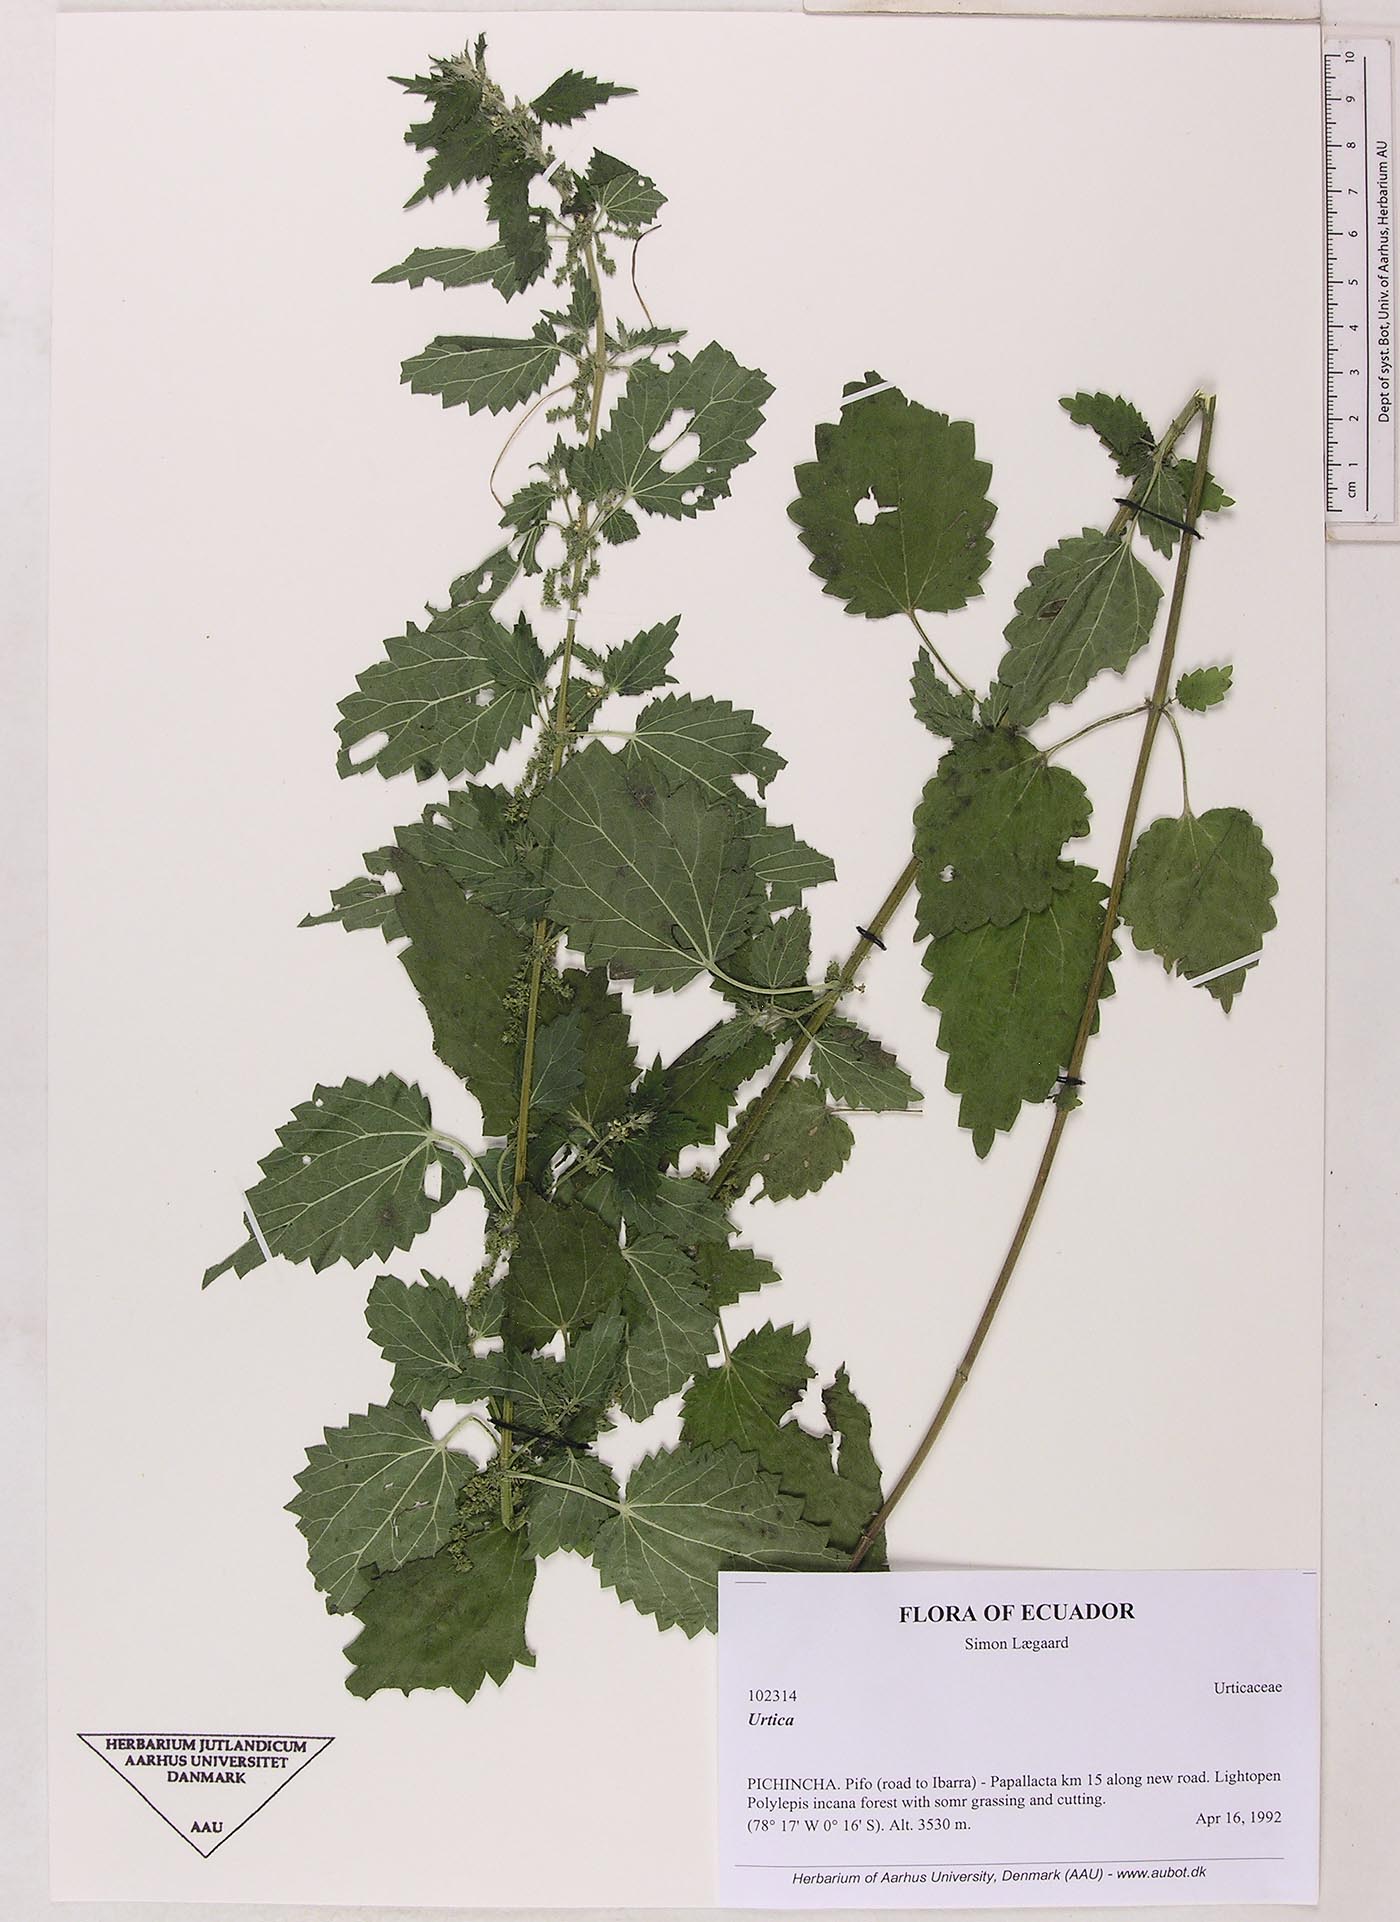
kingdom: Plantae
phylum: Tracheophyta
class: Magnoliopsida
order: Rosales
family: Urticaceae
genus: Urtica
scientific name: Urtica leptophylla
